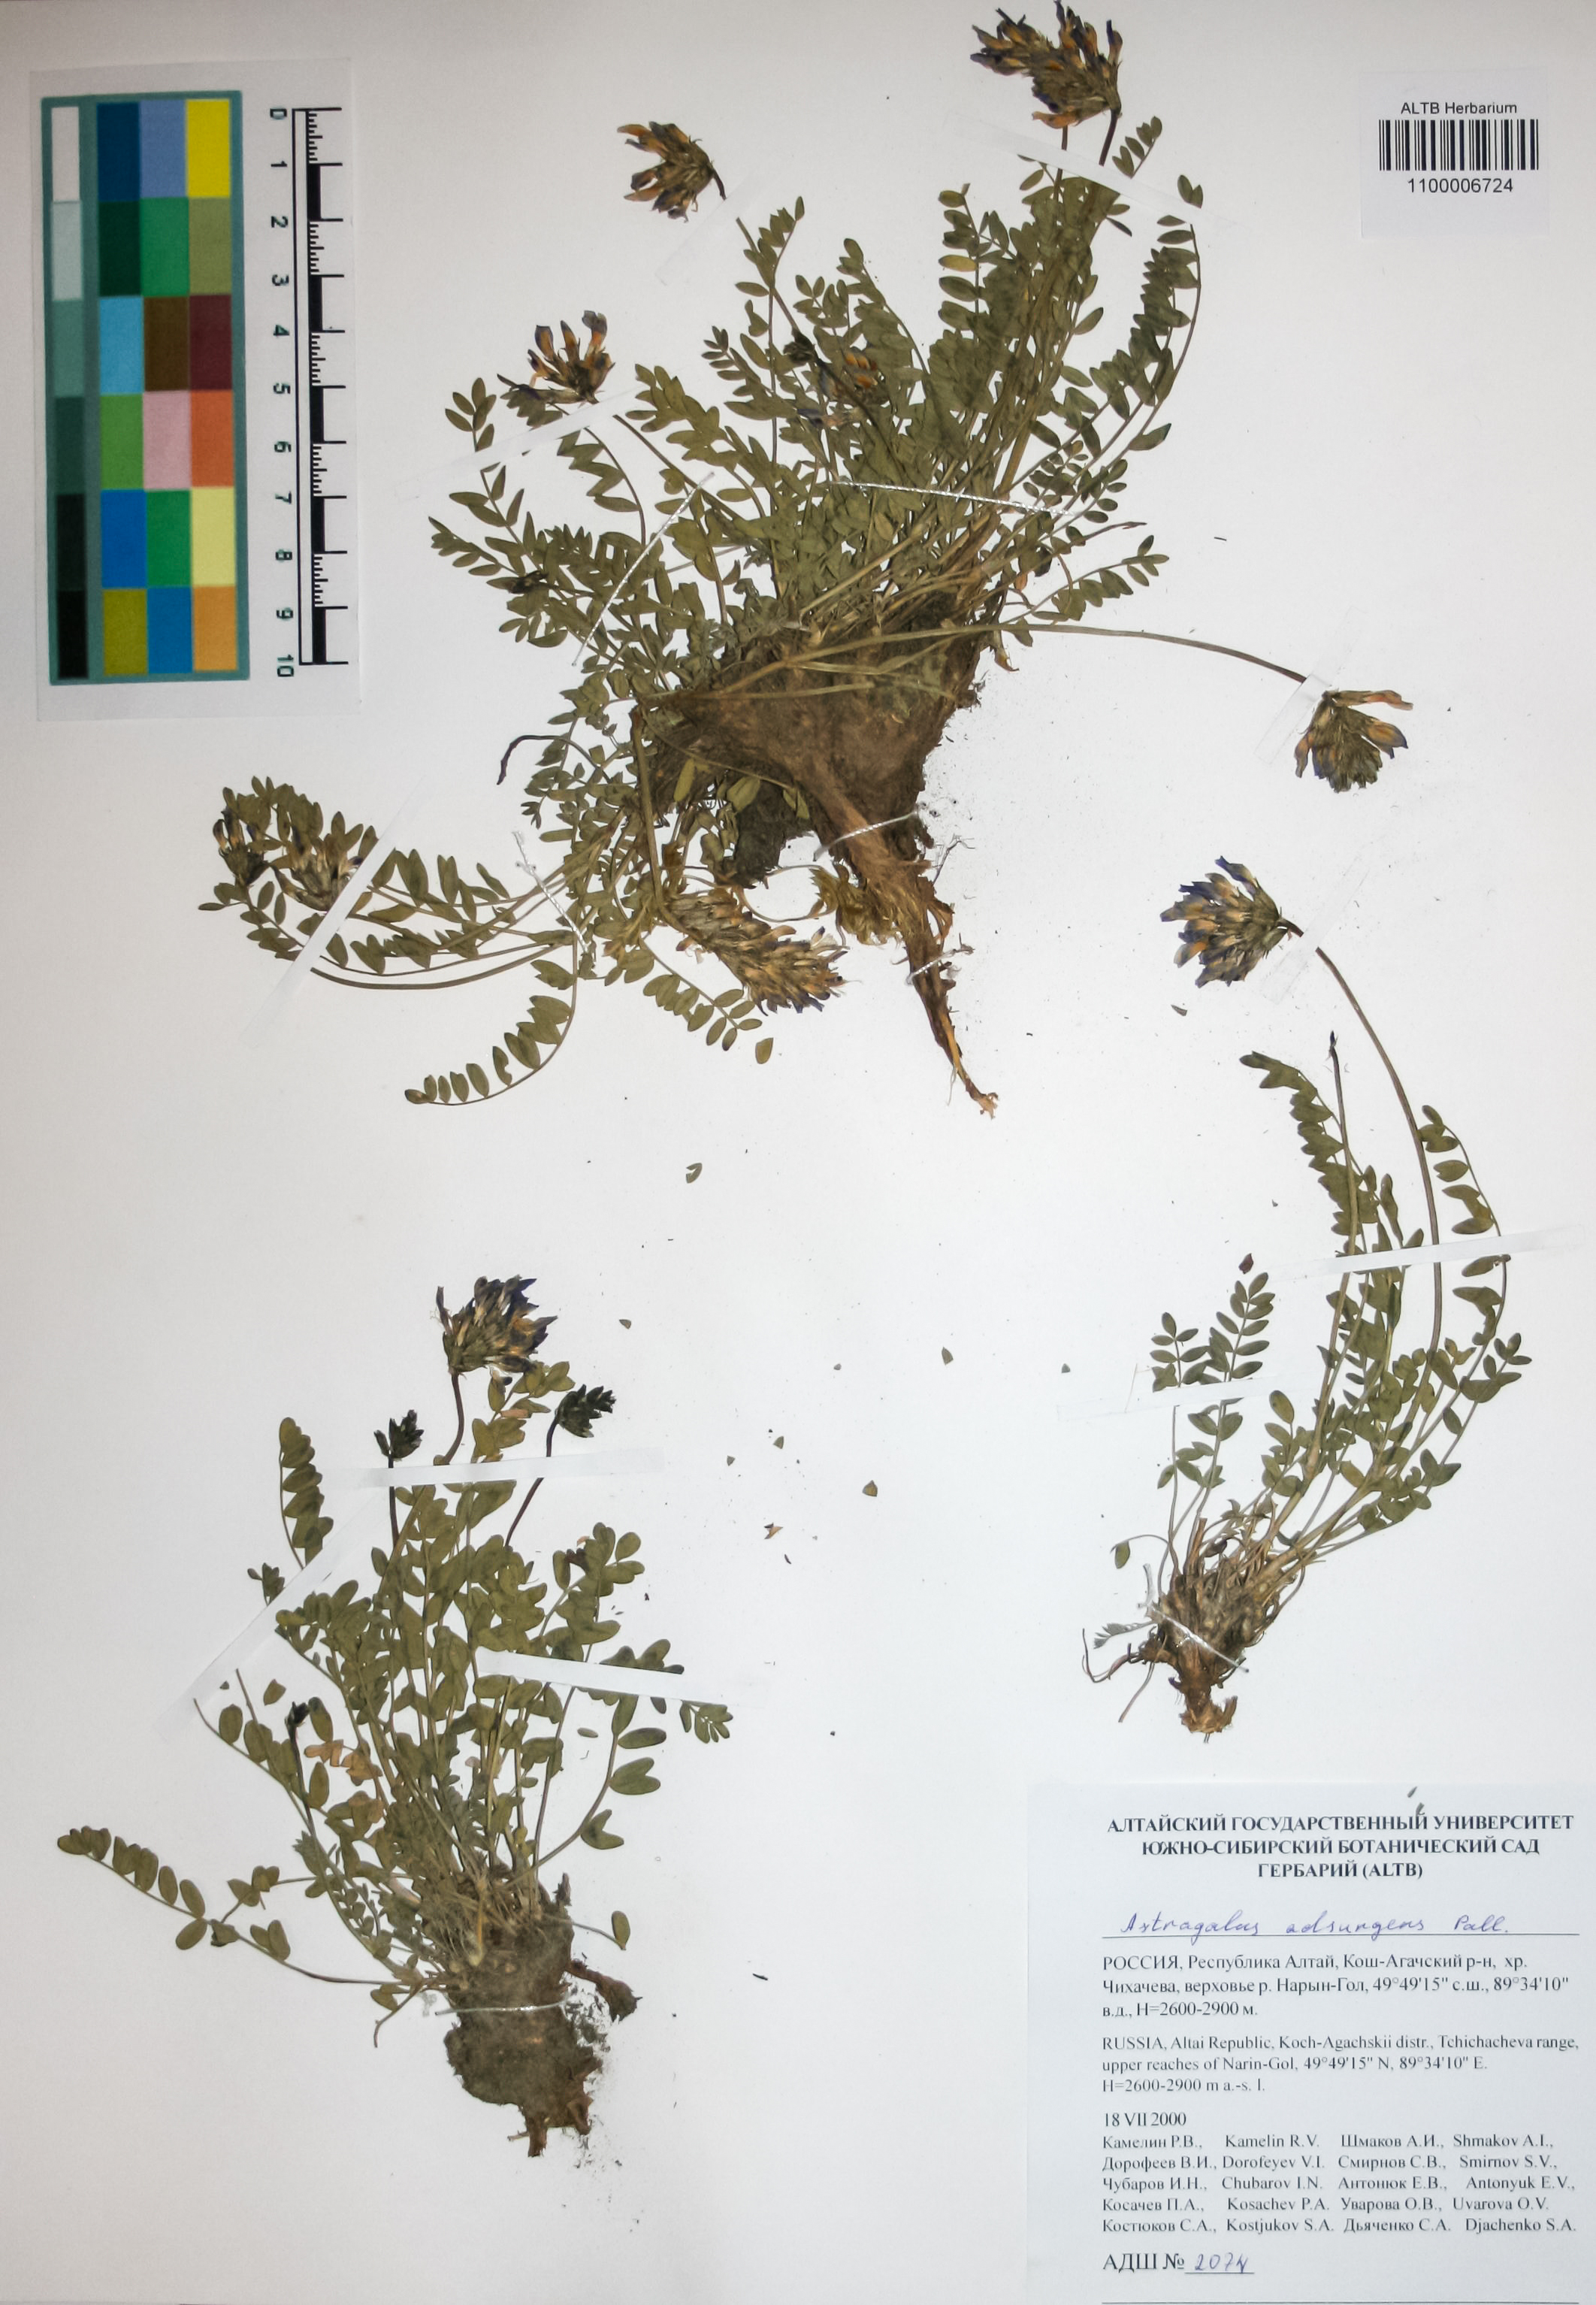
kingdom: Plantae
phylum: Tracheophyta
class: Magnoliopsida
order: Fabales
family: Fabaceae
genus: Astragalus
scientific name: Astragalus laxmannii
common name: Laxmann's milk-vetch
